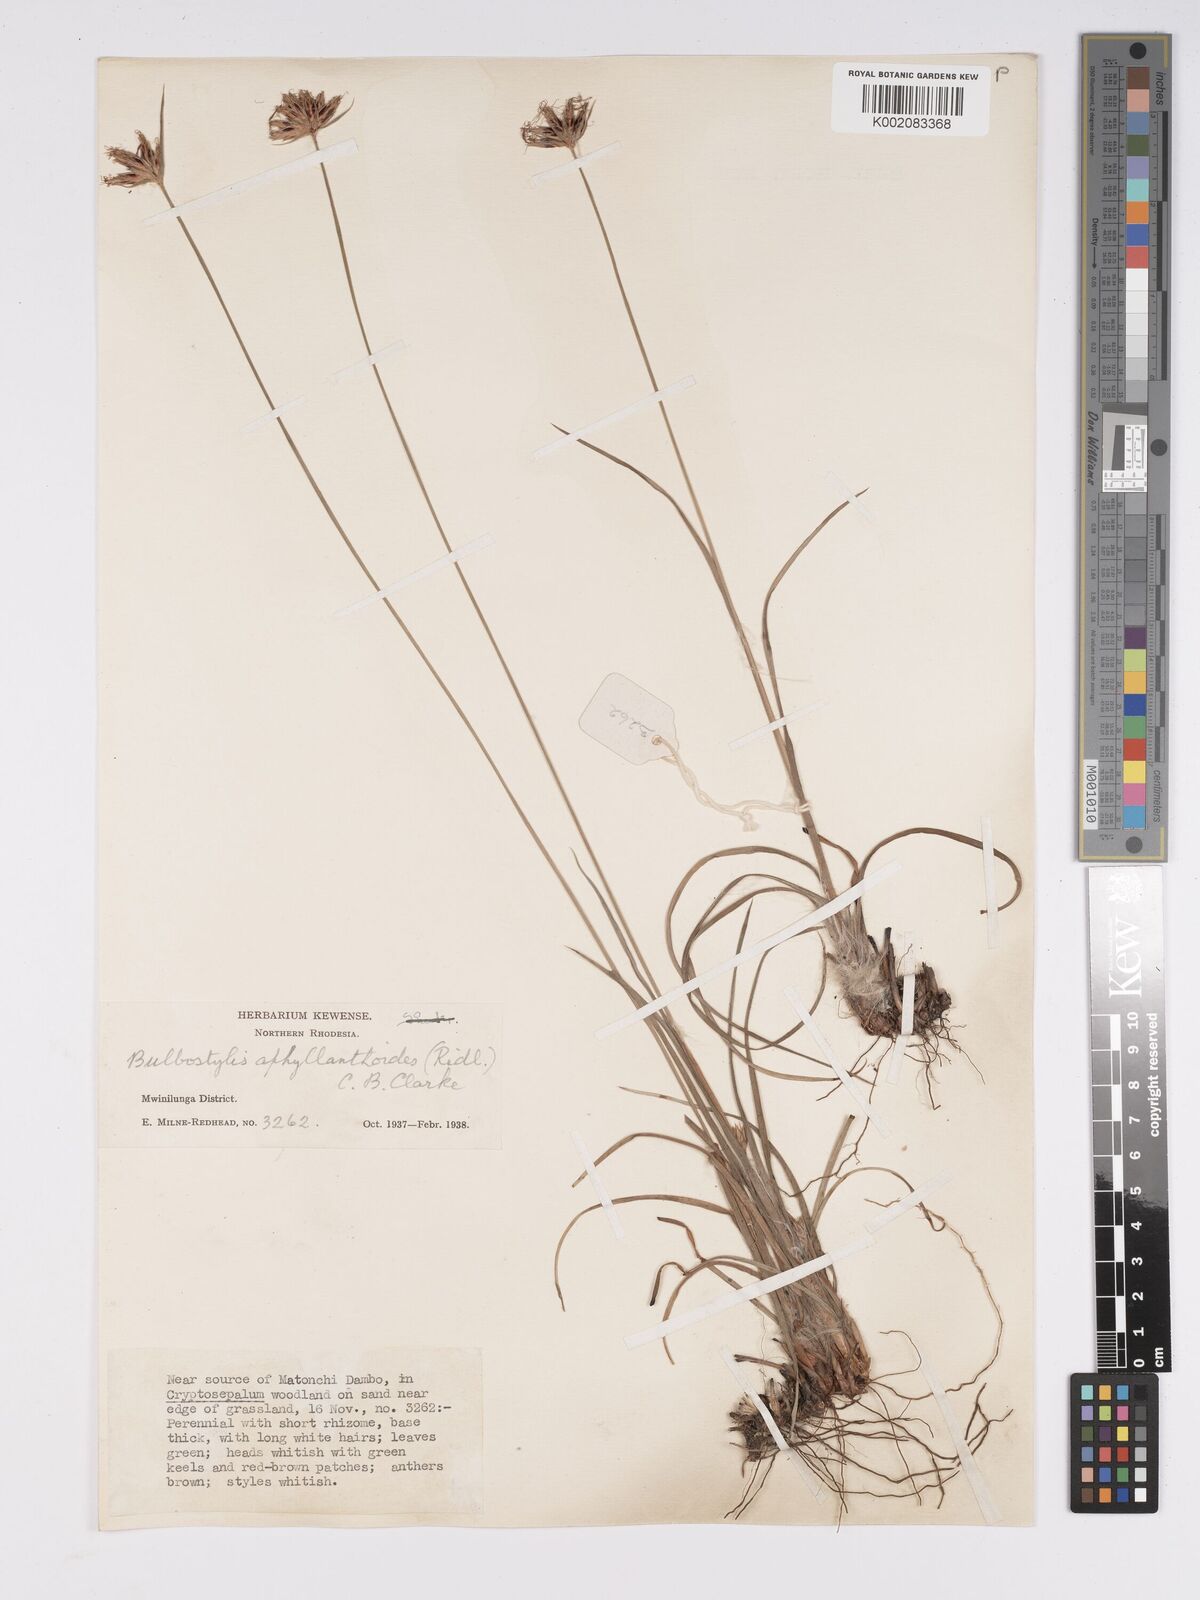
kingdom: Plantae
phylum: Tracheophyta
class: Liliopsida
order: Poales
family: Cyperaceae
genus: Bulbostylis
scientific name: Bulbostylis pilosa
